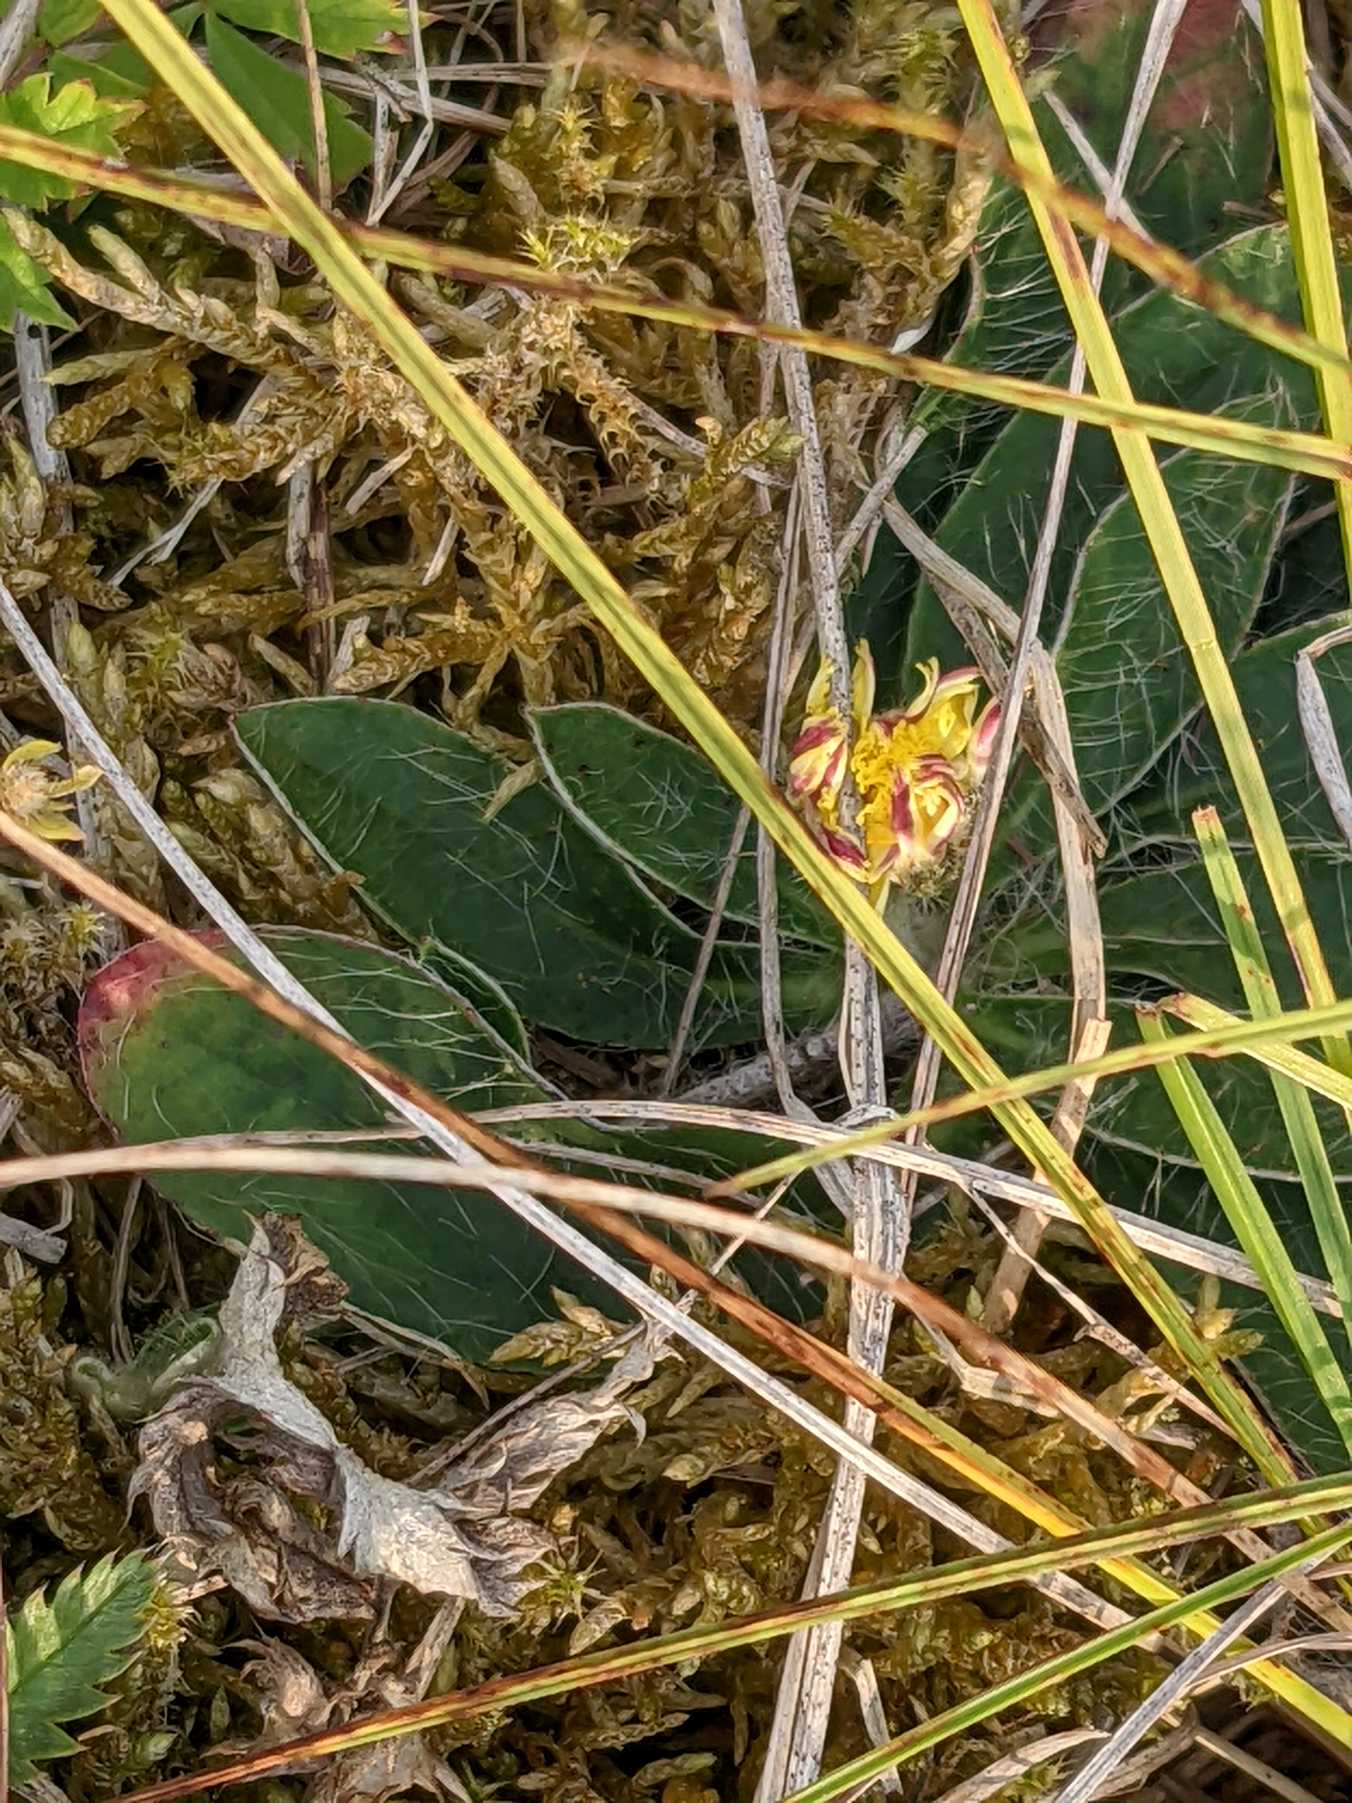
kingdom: Plantae
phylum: Tracheophyta
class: Magnoliopsida
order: Asterales
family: Asteraceae
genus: Pilosella
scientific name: Pilosella officinarum
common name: Håret høgeurt
